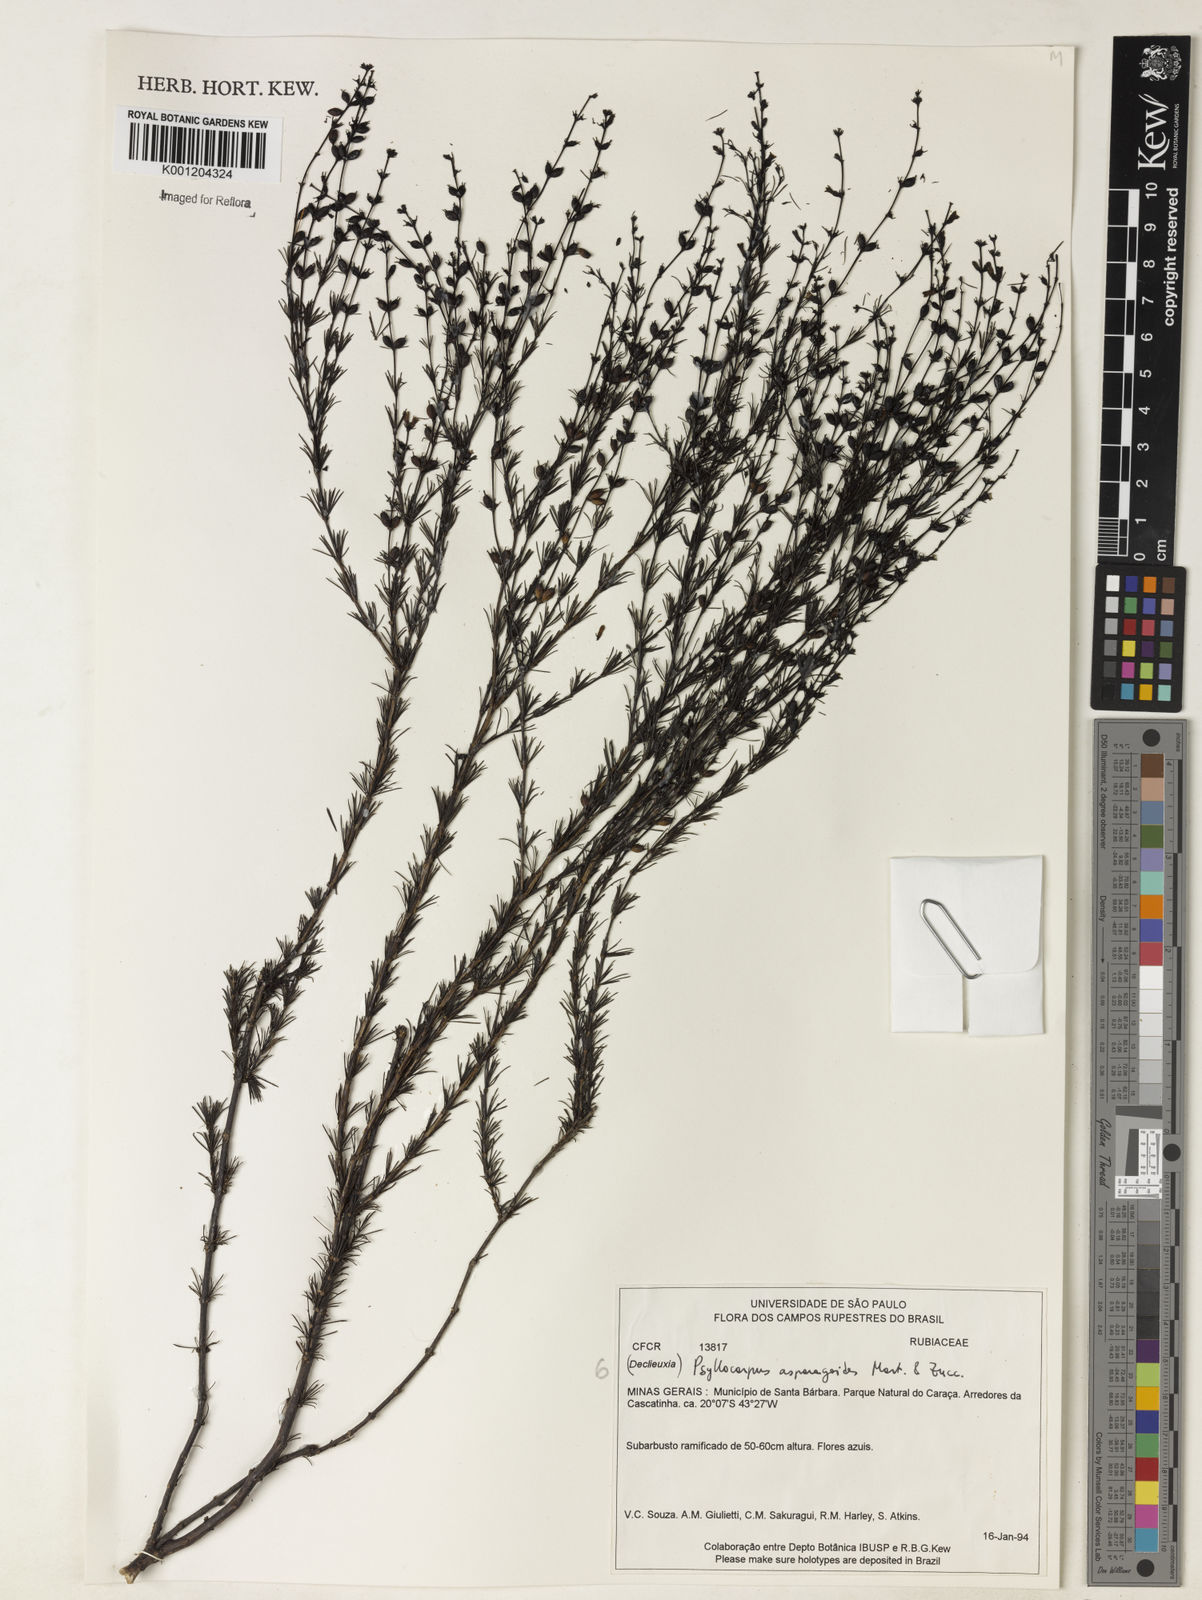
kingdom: Plantae
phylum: Tracheophyta
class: Magnoliopsida
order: Gentianales
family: Rubiaceae
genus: Psyllocarpus
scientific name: Psyllocarpus laricoides
